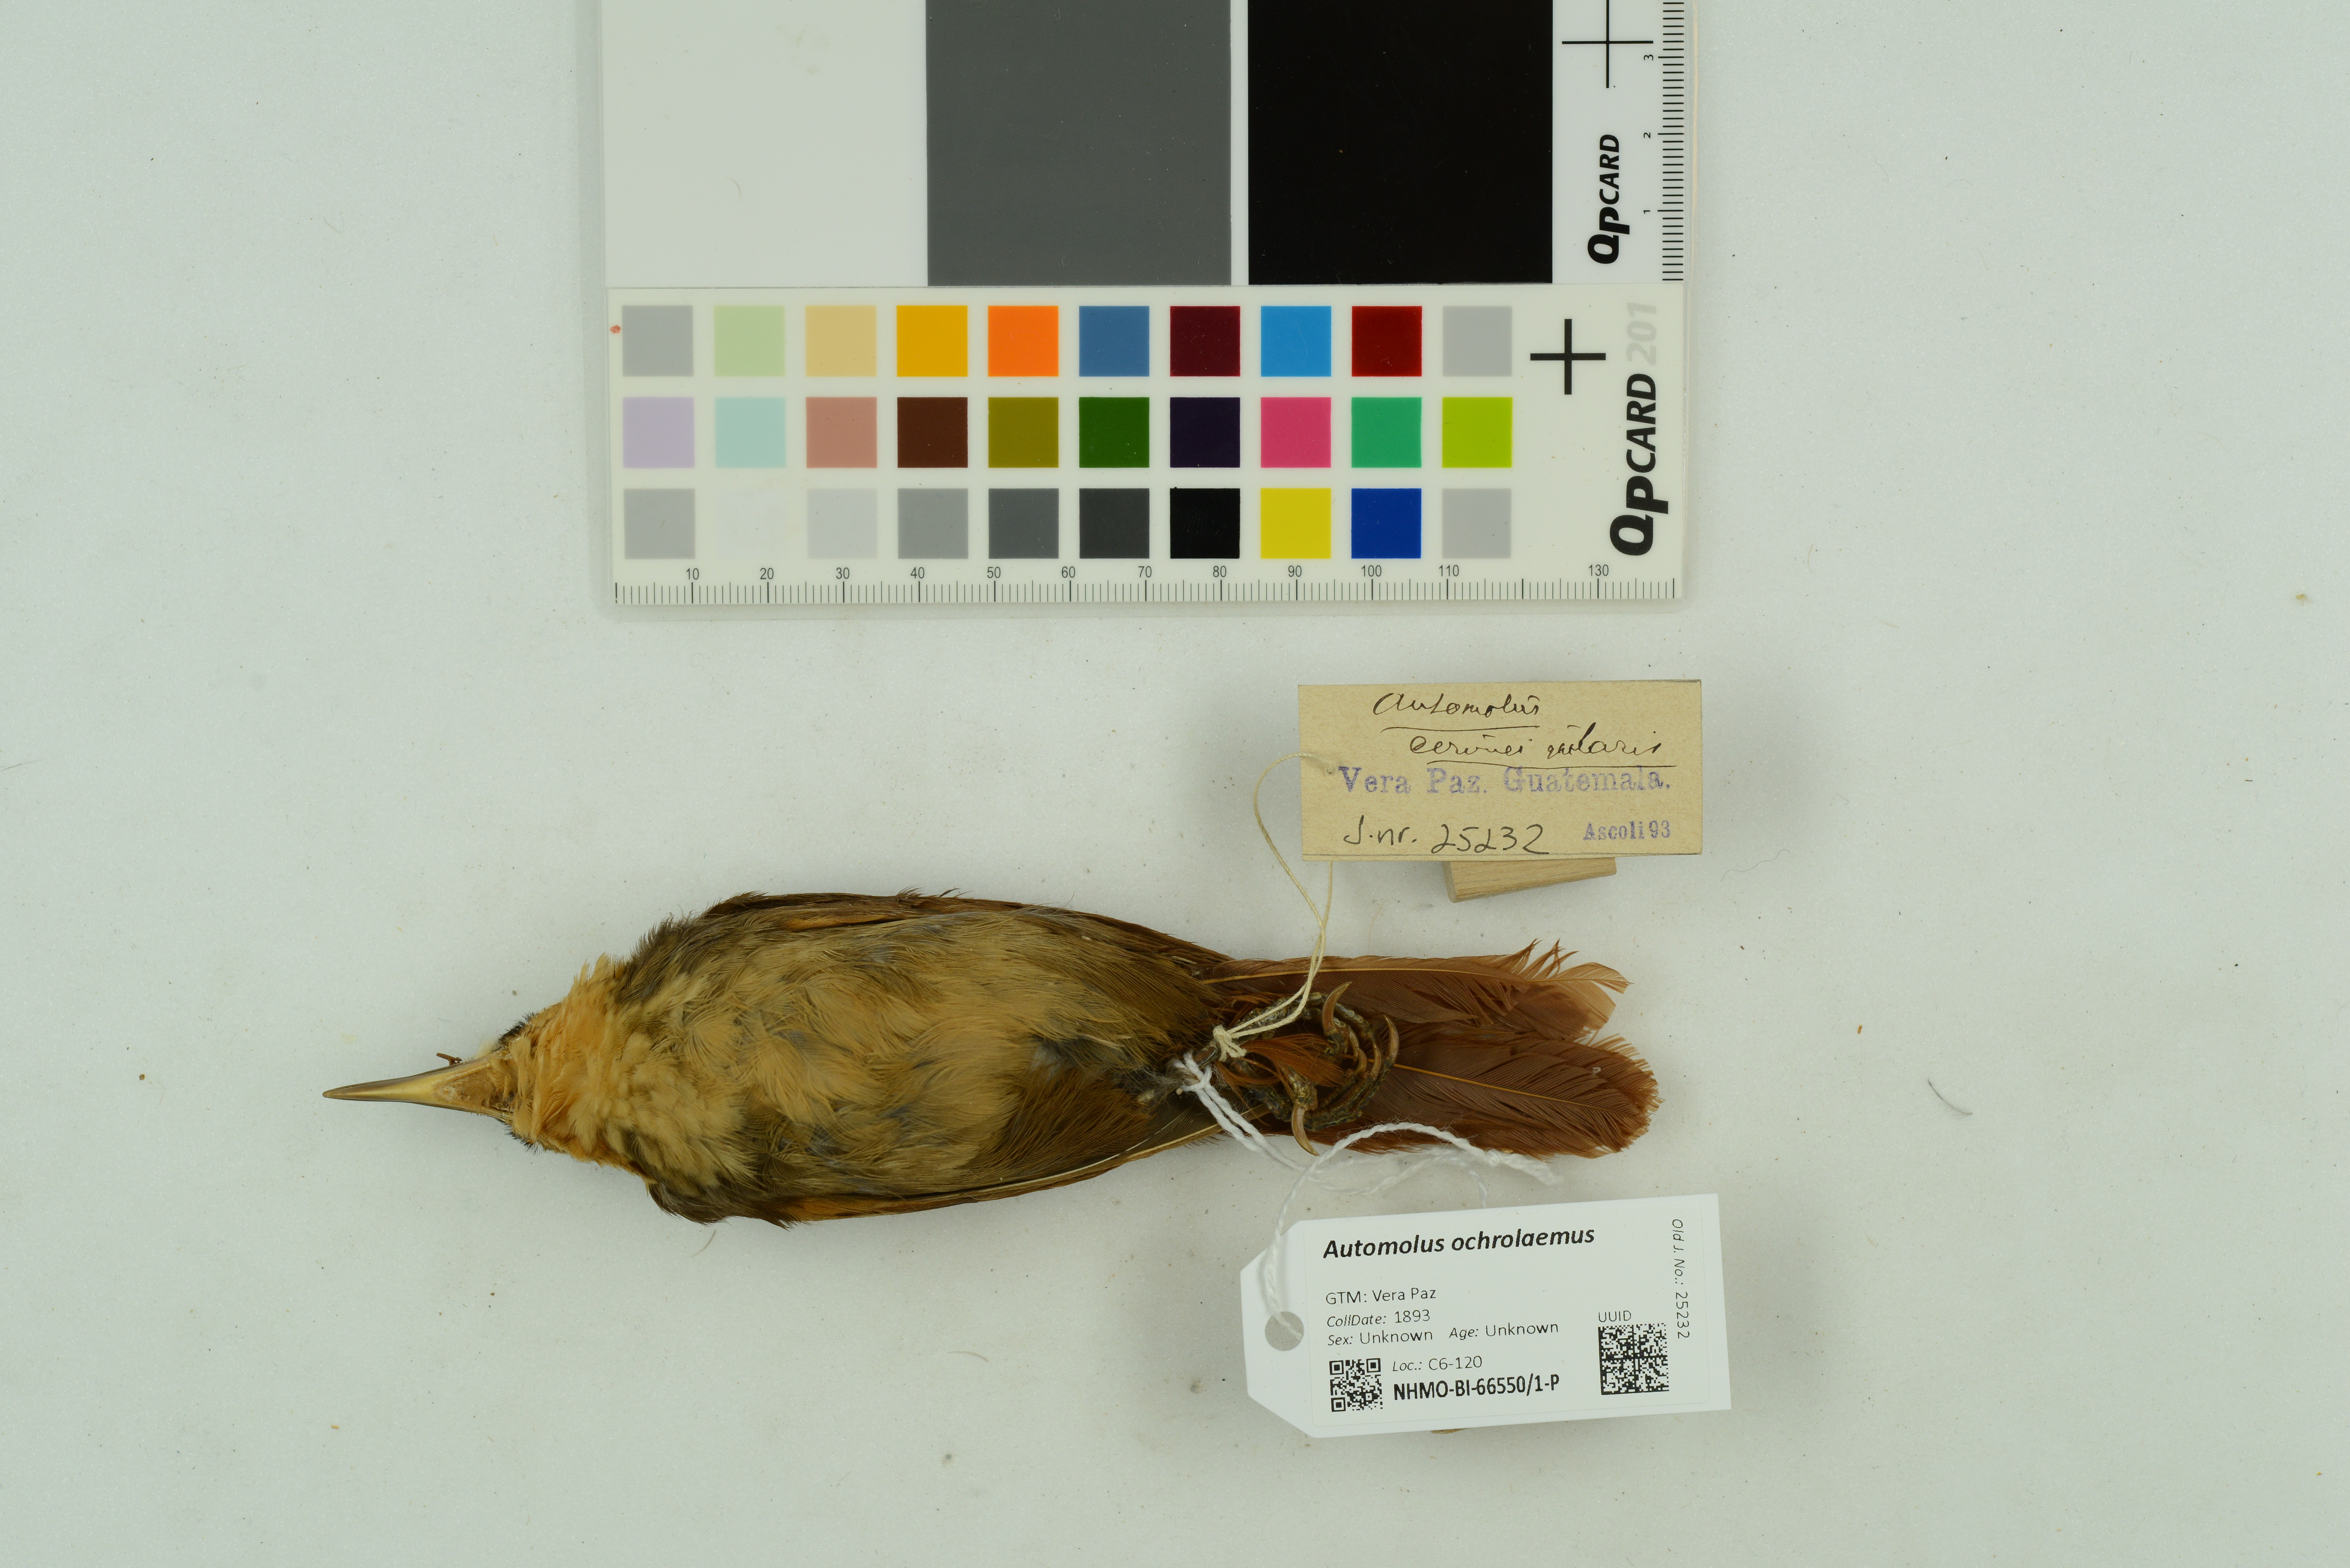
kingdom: Animalia
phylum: Chordata
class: Aves
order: Passeriformes
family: Furnariidae
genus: Automolus
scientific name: Automolus ochrolaemus
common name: Buff-throated foliage-gleaner
